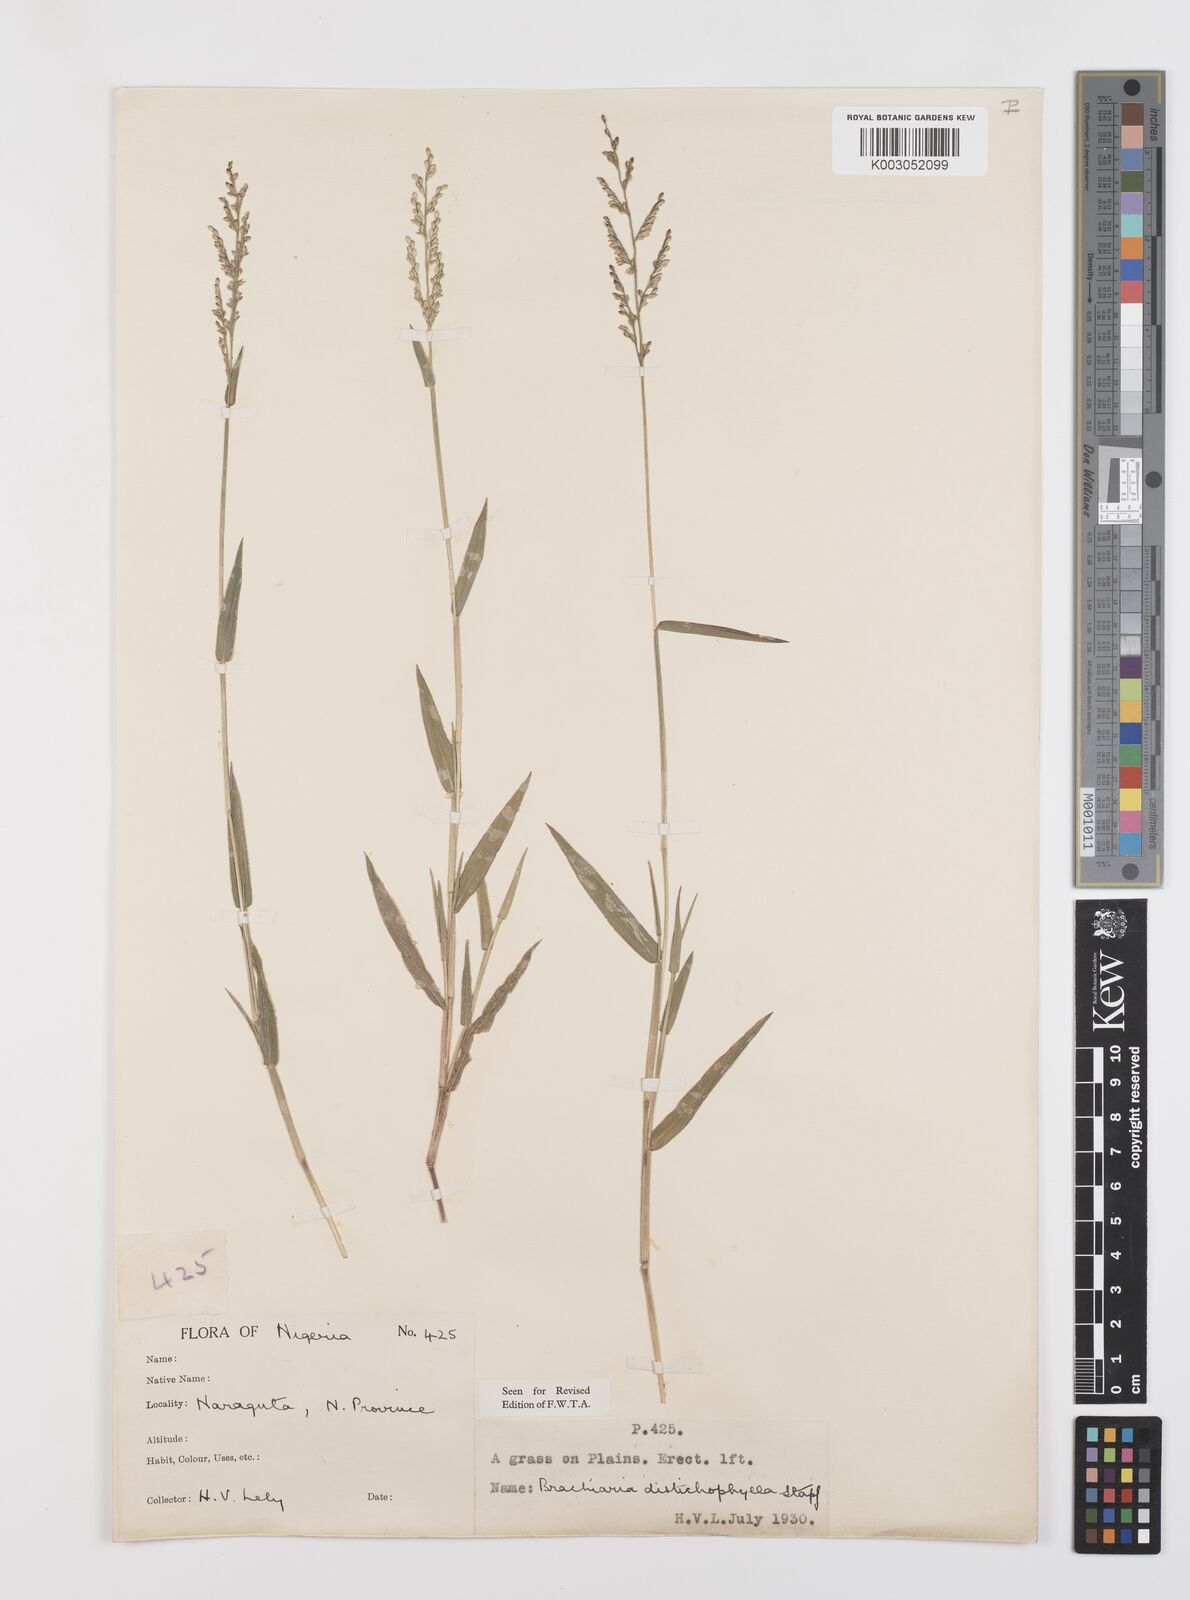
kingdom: Plantae
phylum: Tracheophyta
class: Liliopsida
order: Poales
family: Poaceae
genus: Urochloa
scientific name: Urochloa villosa
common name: Hairy signalgrass
